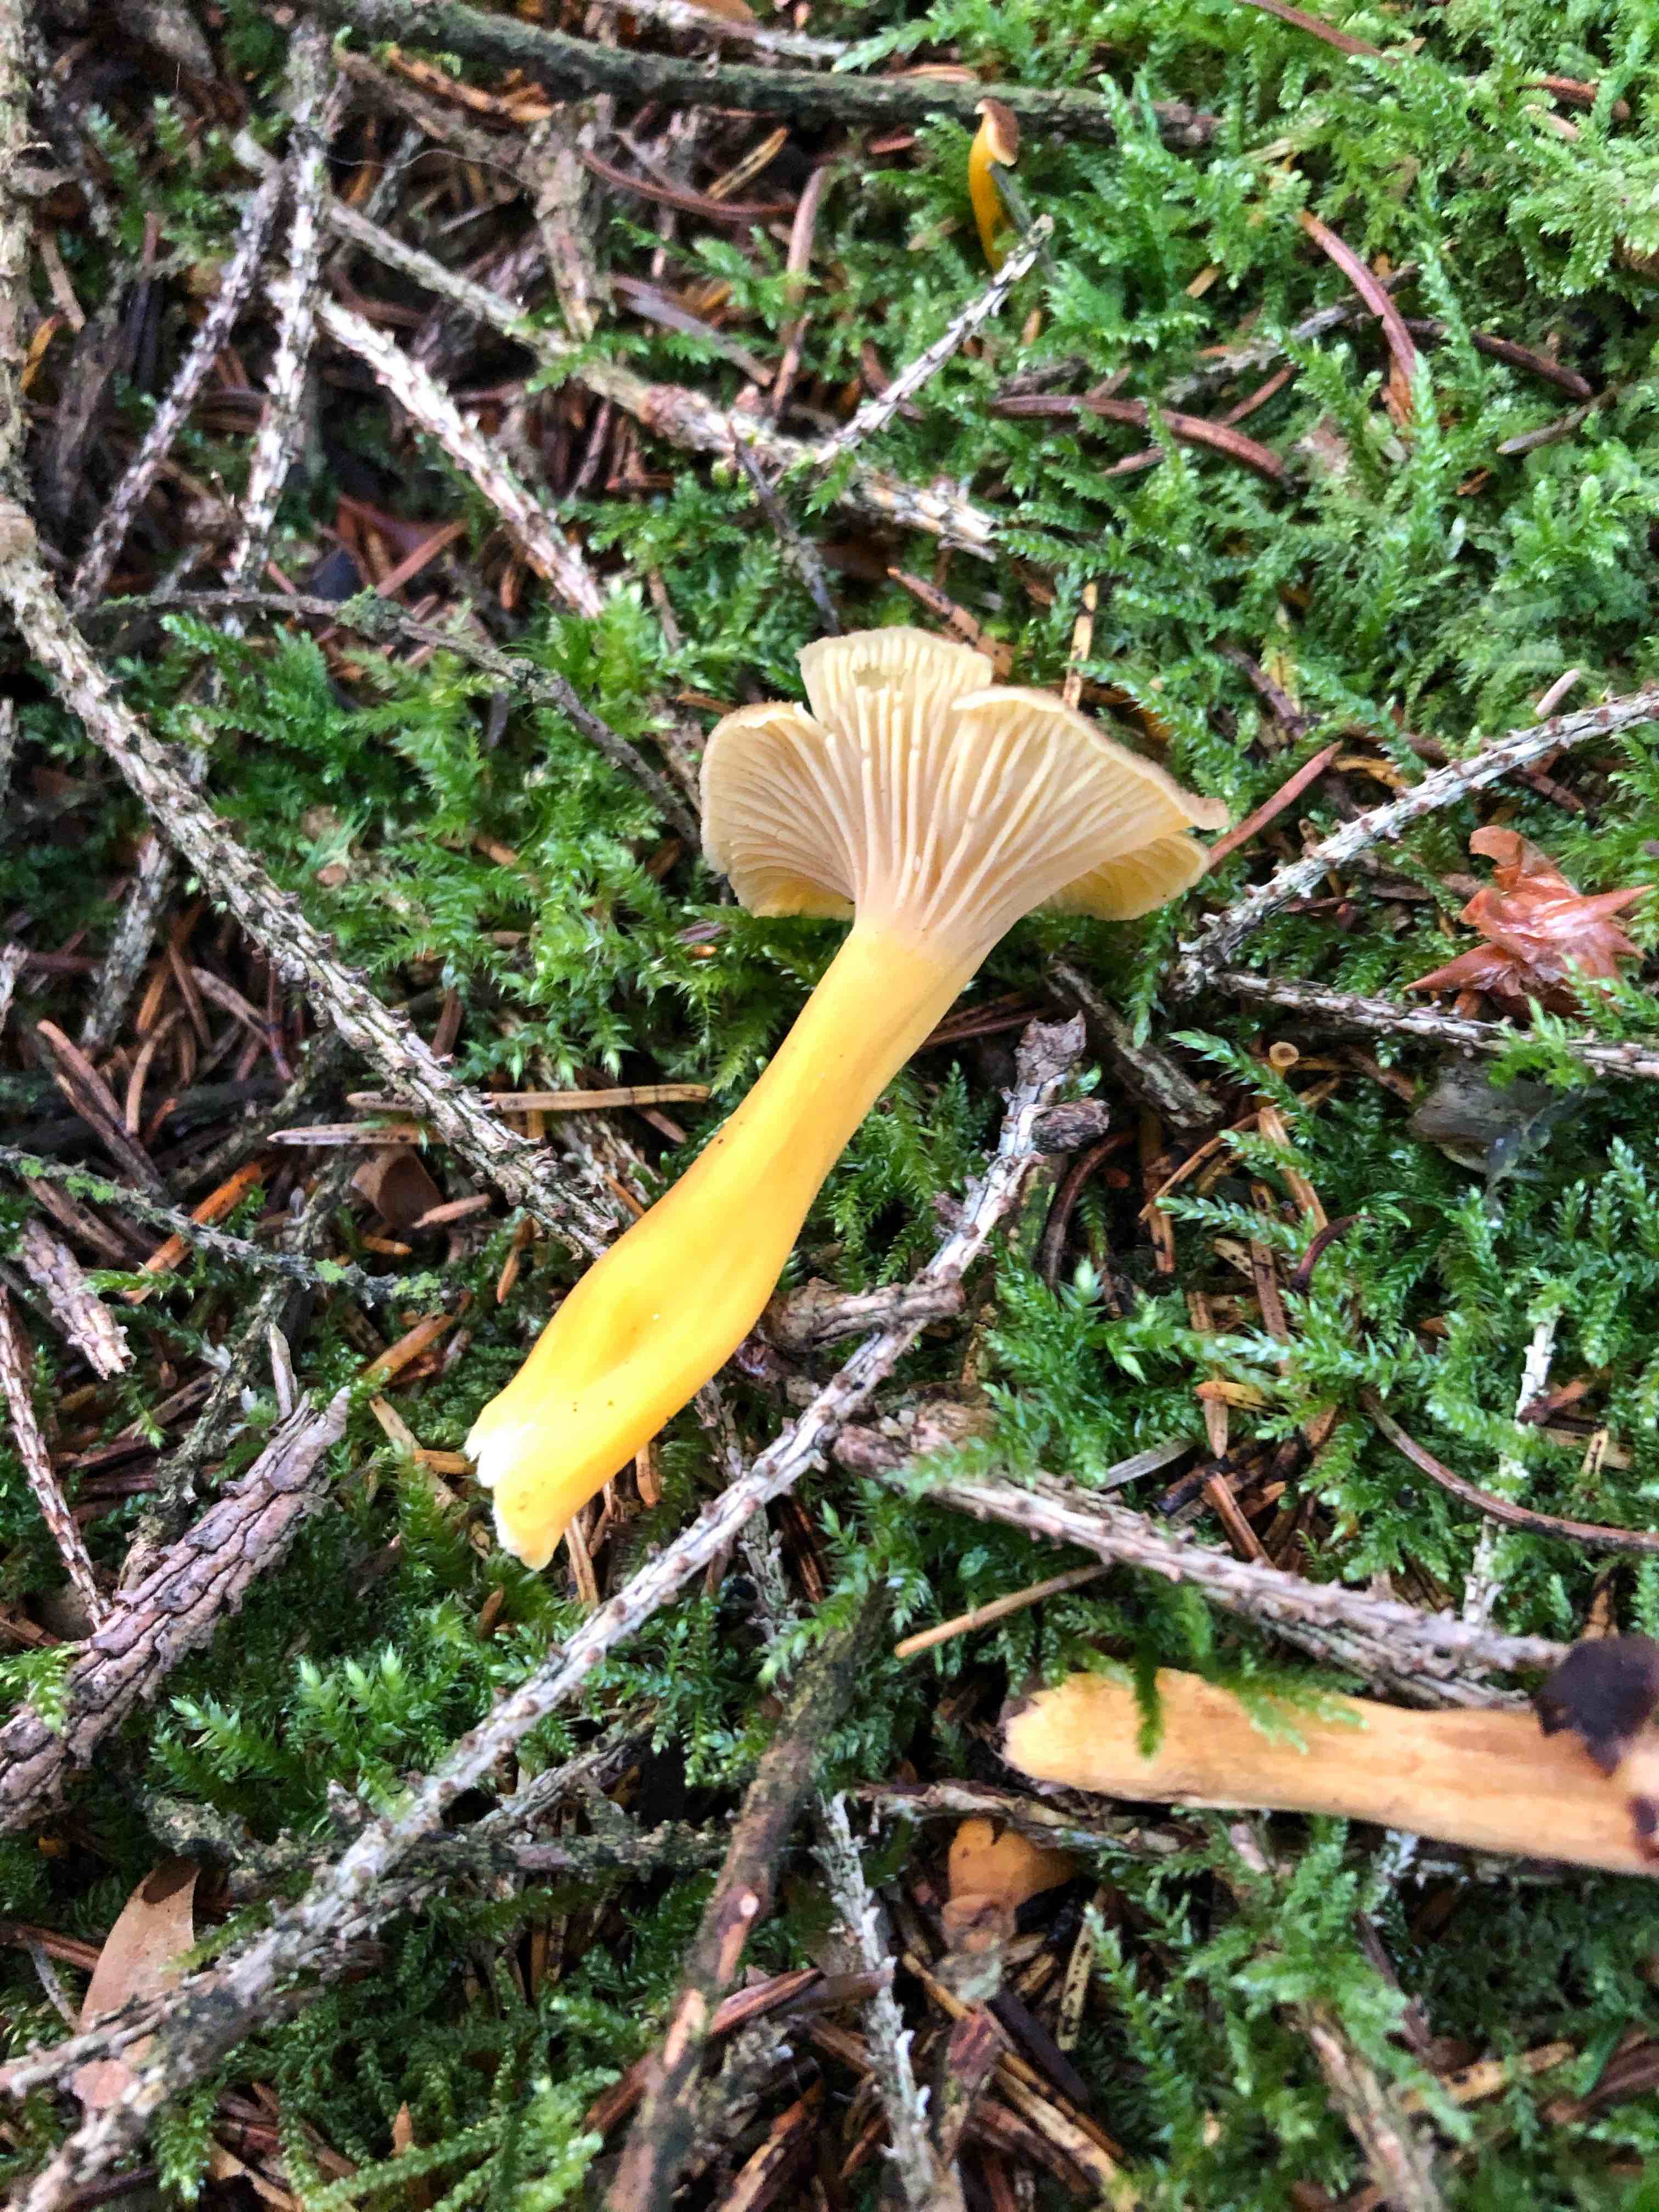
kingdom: Fungi
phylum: Basidiomycota
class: Agaricomycetes
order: Cantharellales
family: Hydnaceae
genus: Craterellus
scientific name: Craterellus tubaeformis
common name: tragt-kantarel
